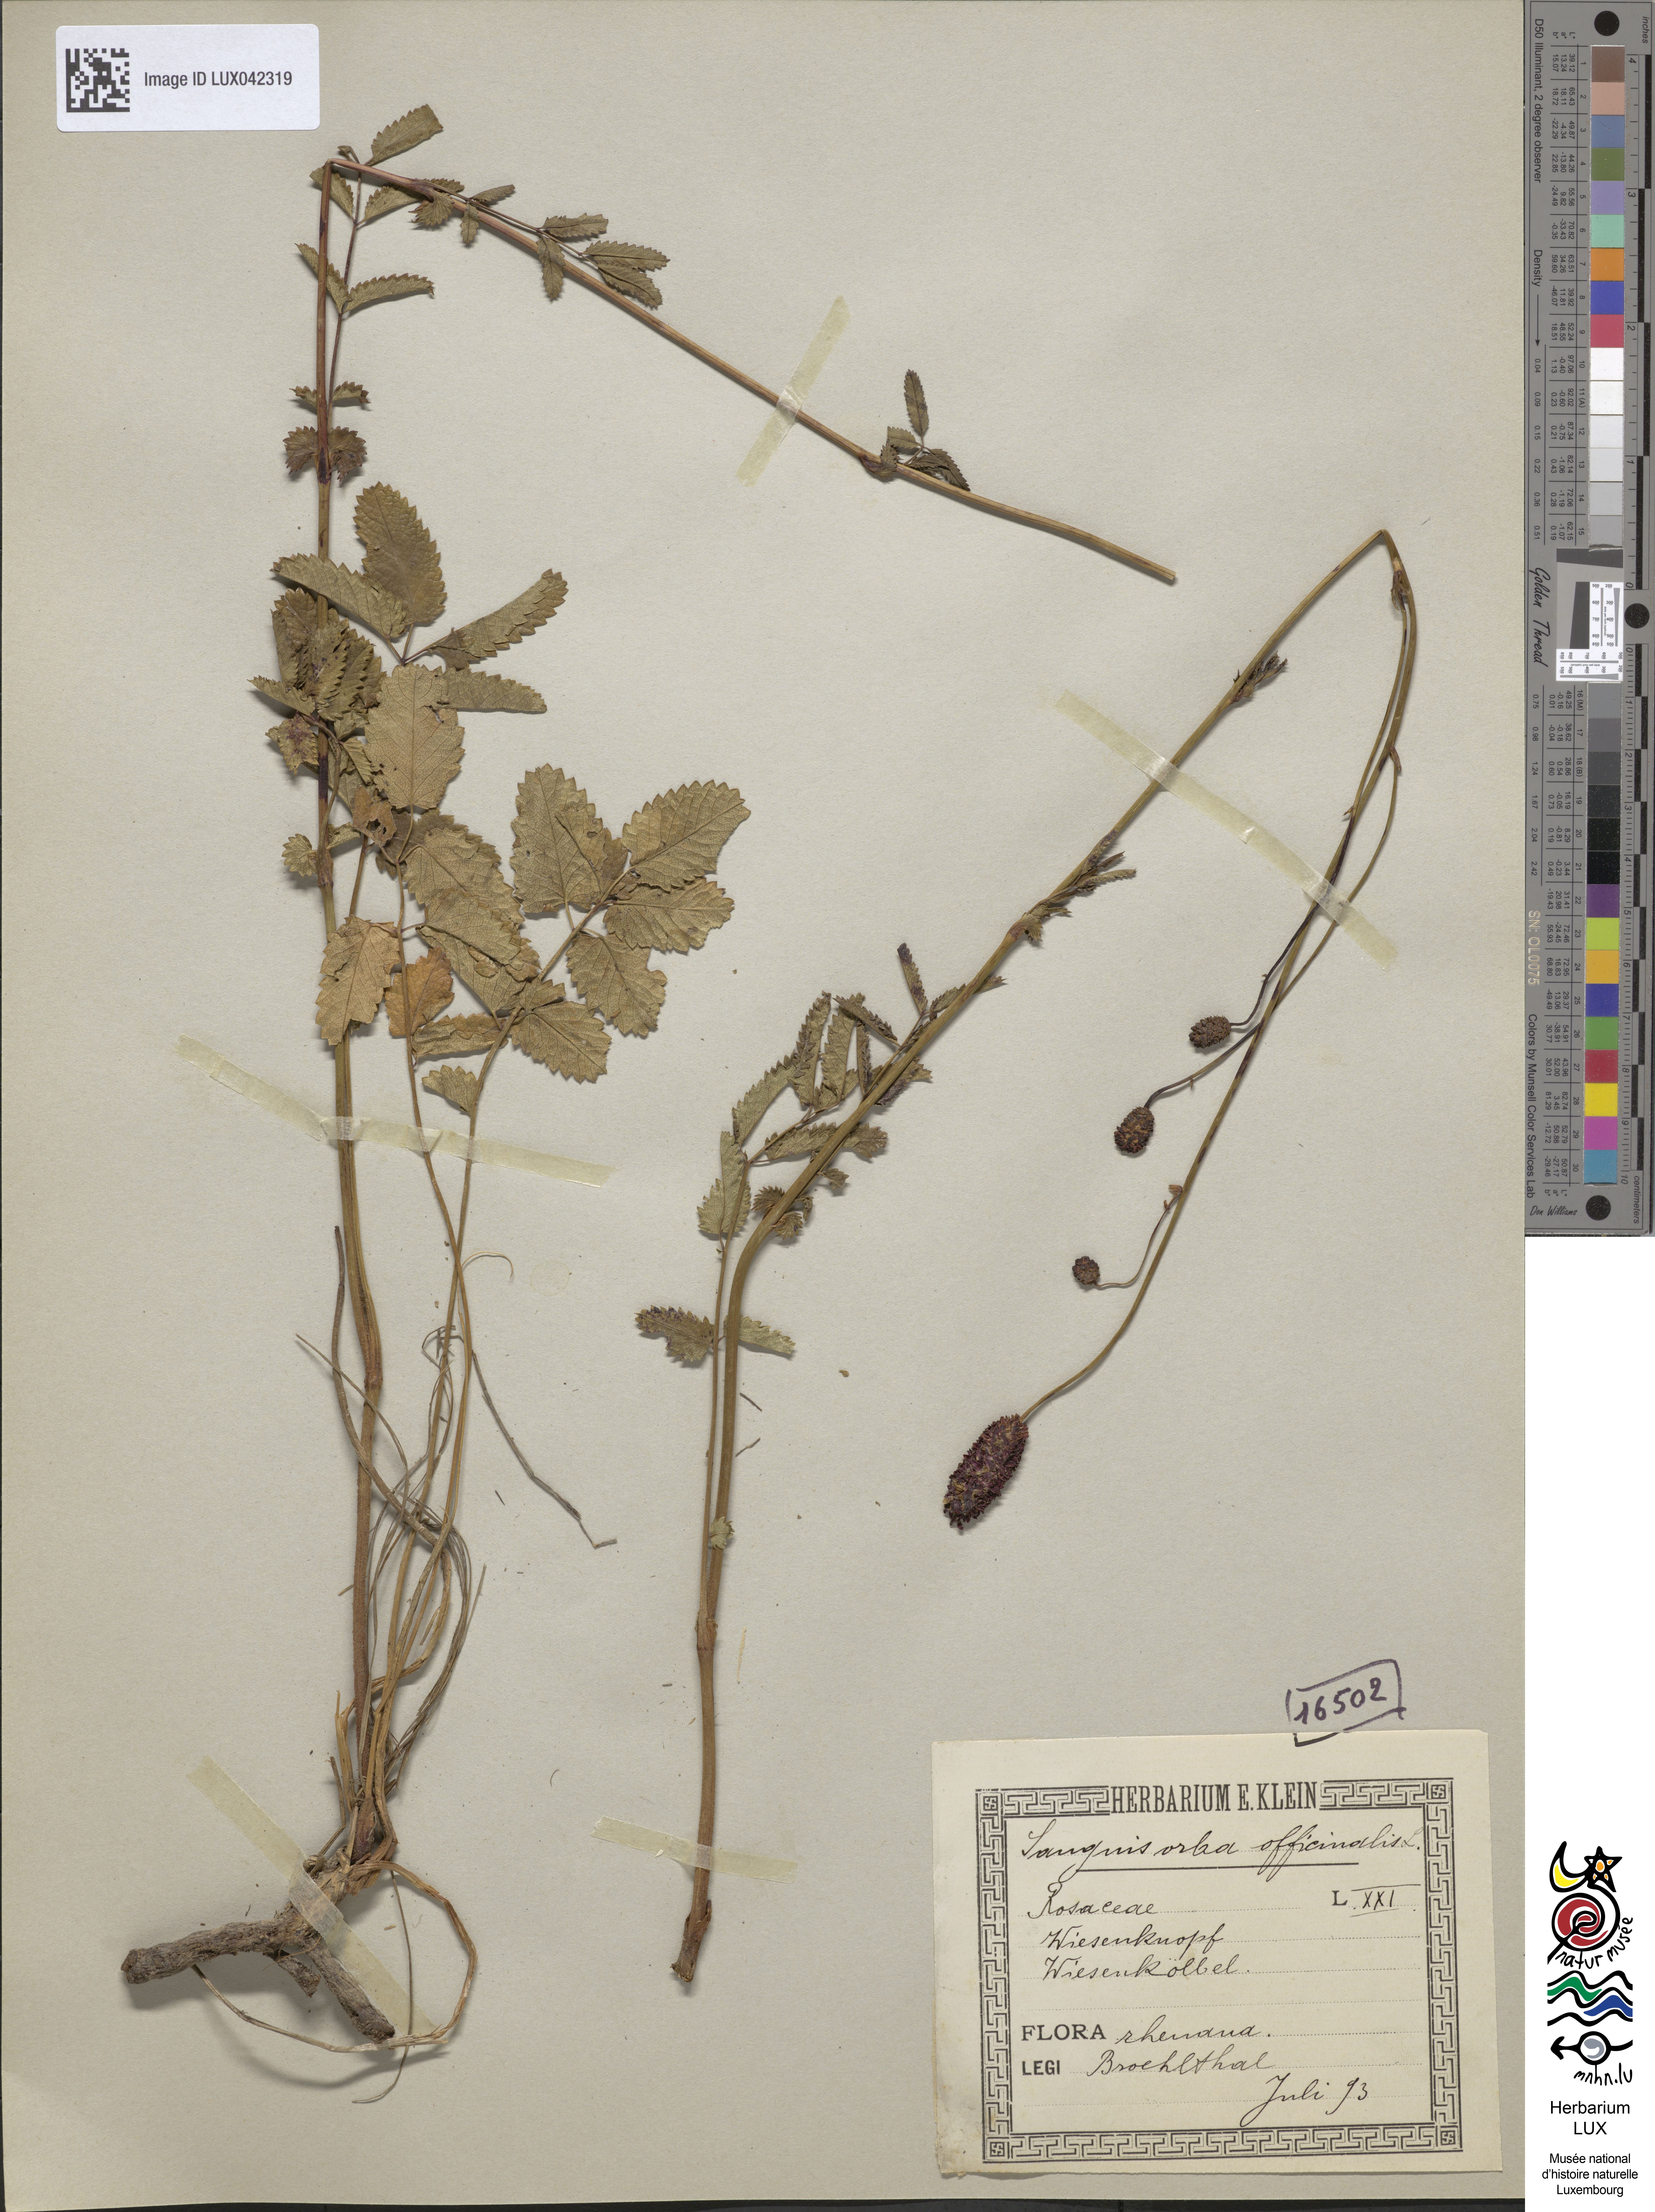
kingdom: Plantae
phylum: Tracheophyta
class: Magnoliopsida
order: Rosales
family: Rosaceae
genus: Sanguisorba
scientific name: Sanguisorba officinalis
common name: Great burnet
